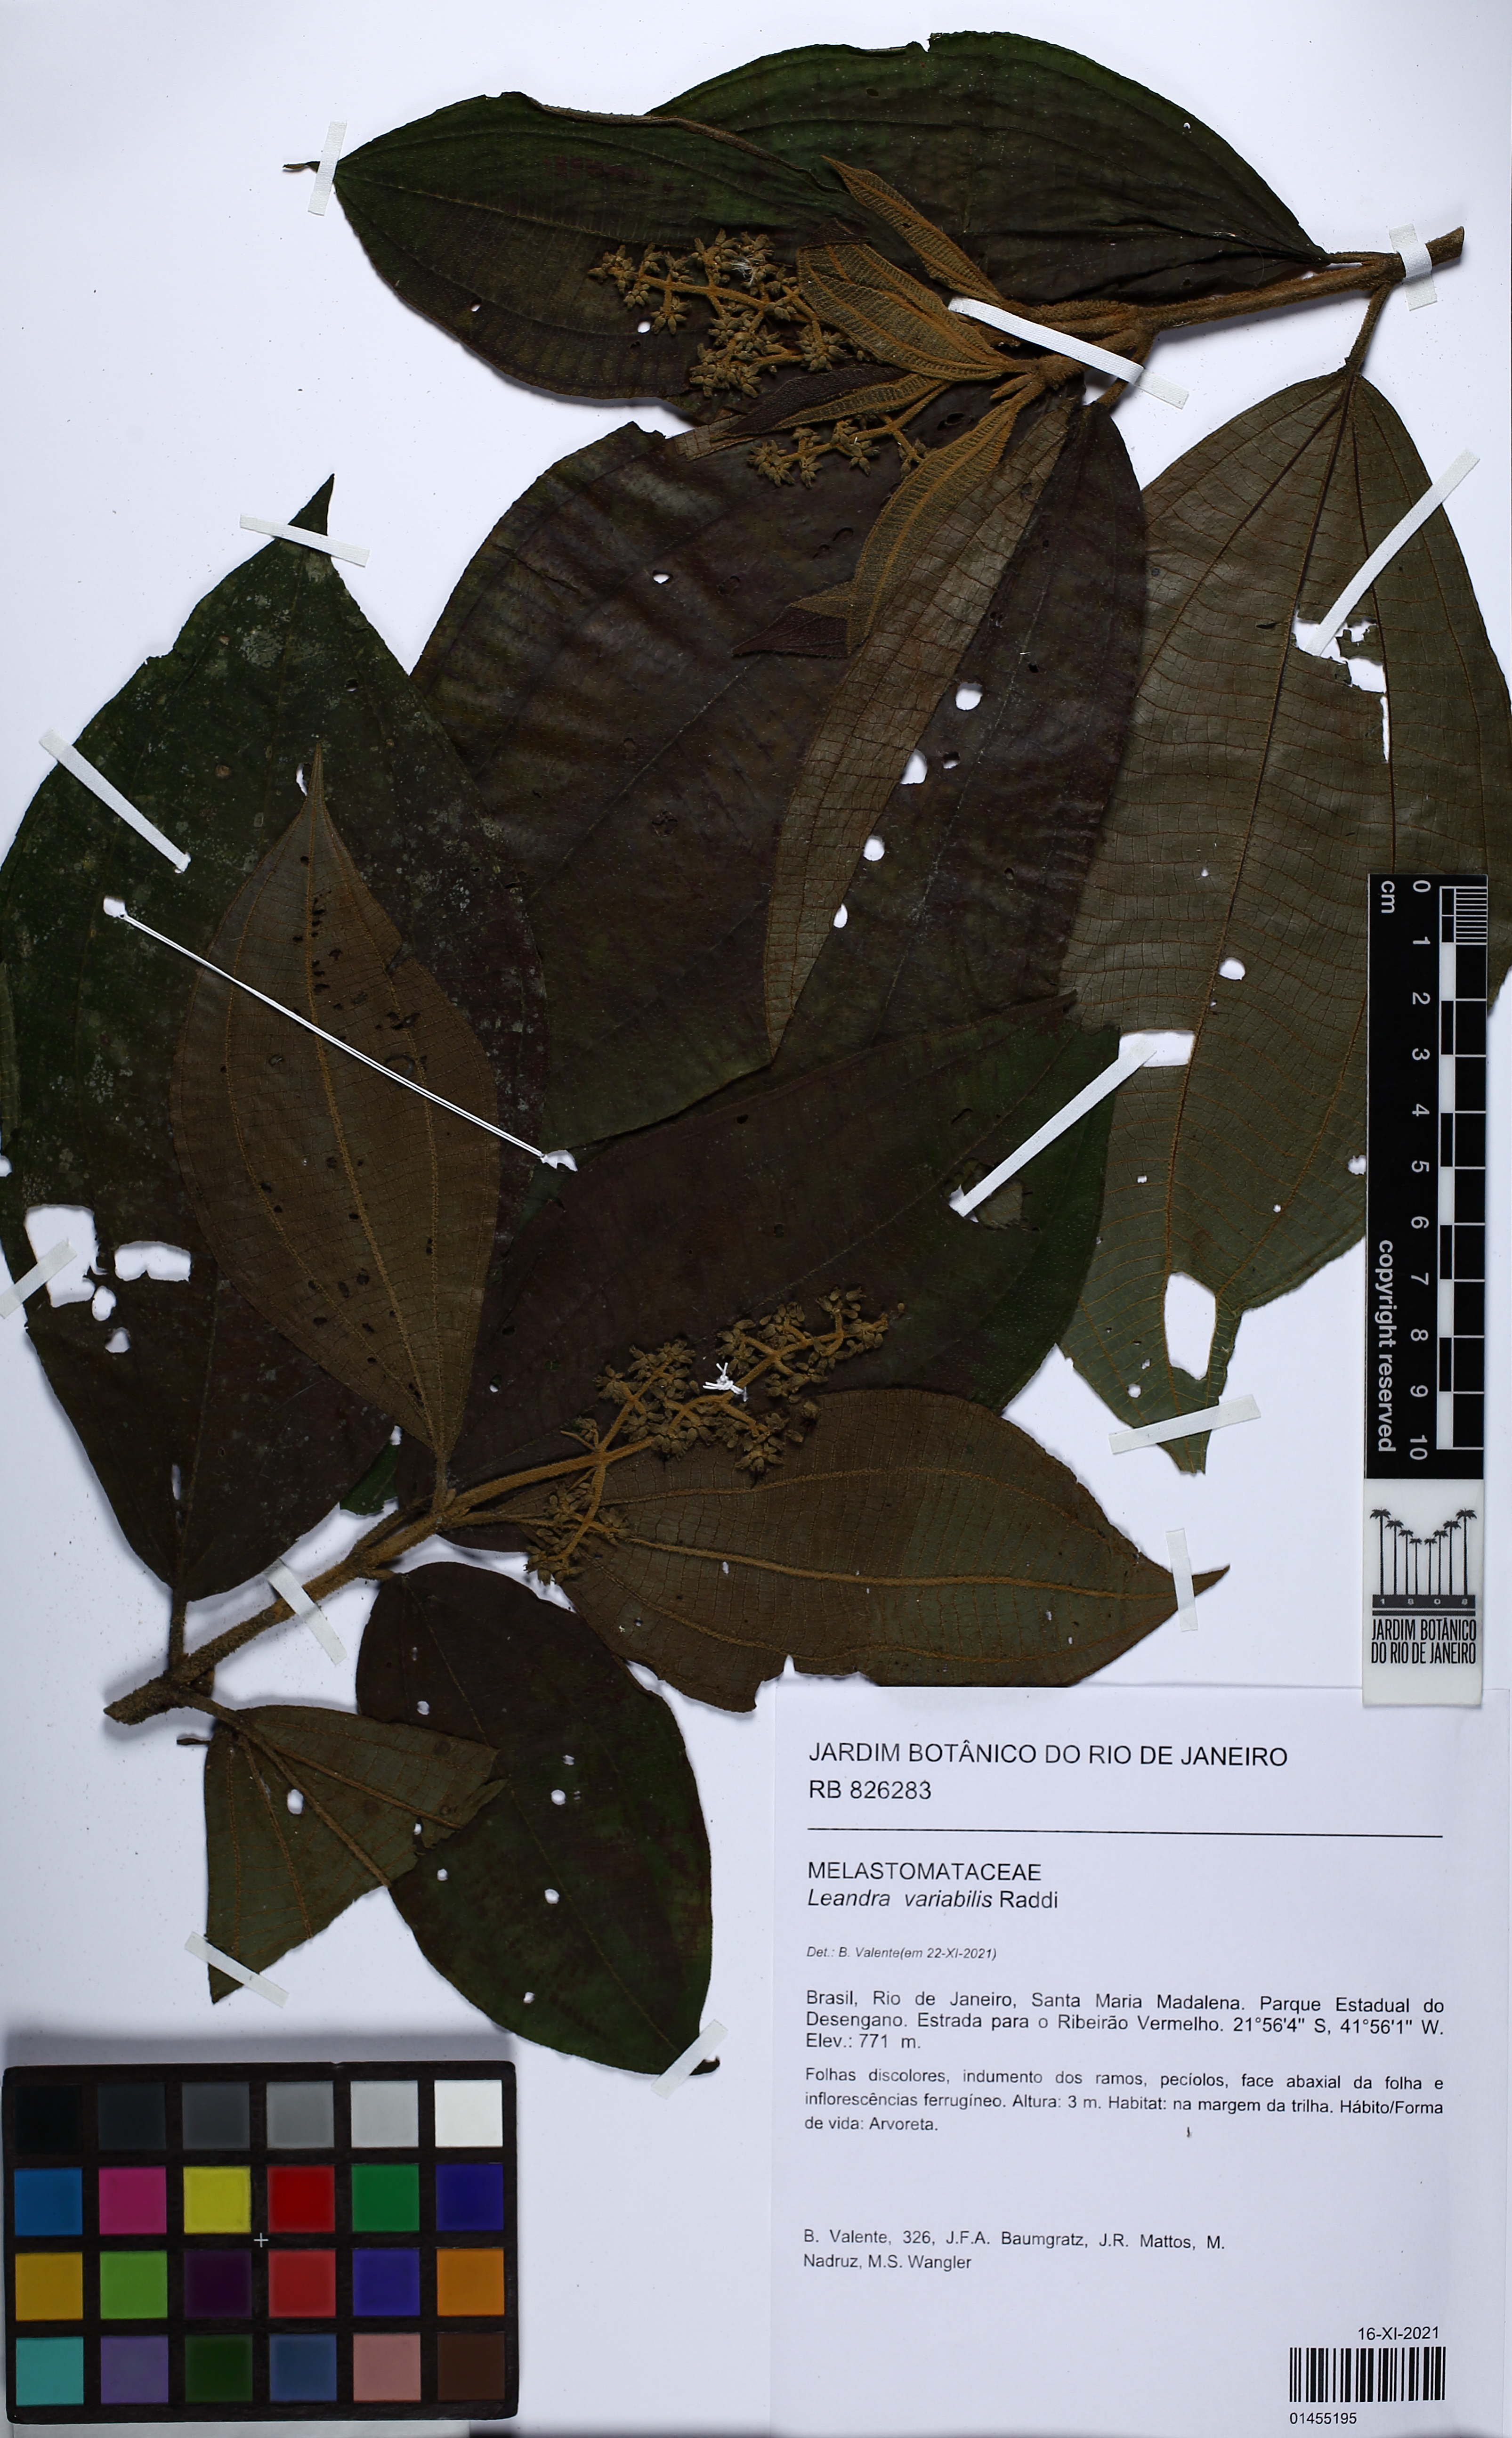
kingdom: Plantae
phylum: Tracheophyta
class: Magnoliopsida
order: Myrtales
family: Melastomataceae
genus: Miconia
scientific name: Miconia dasytricha
